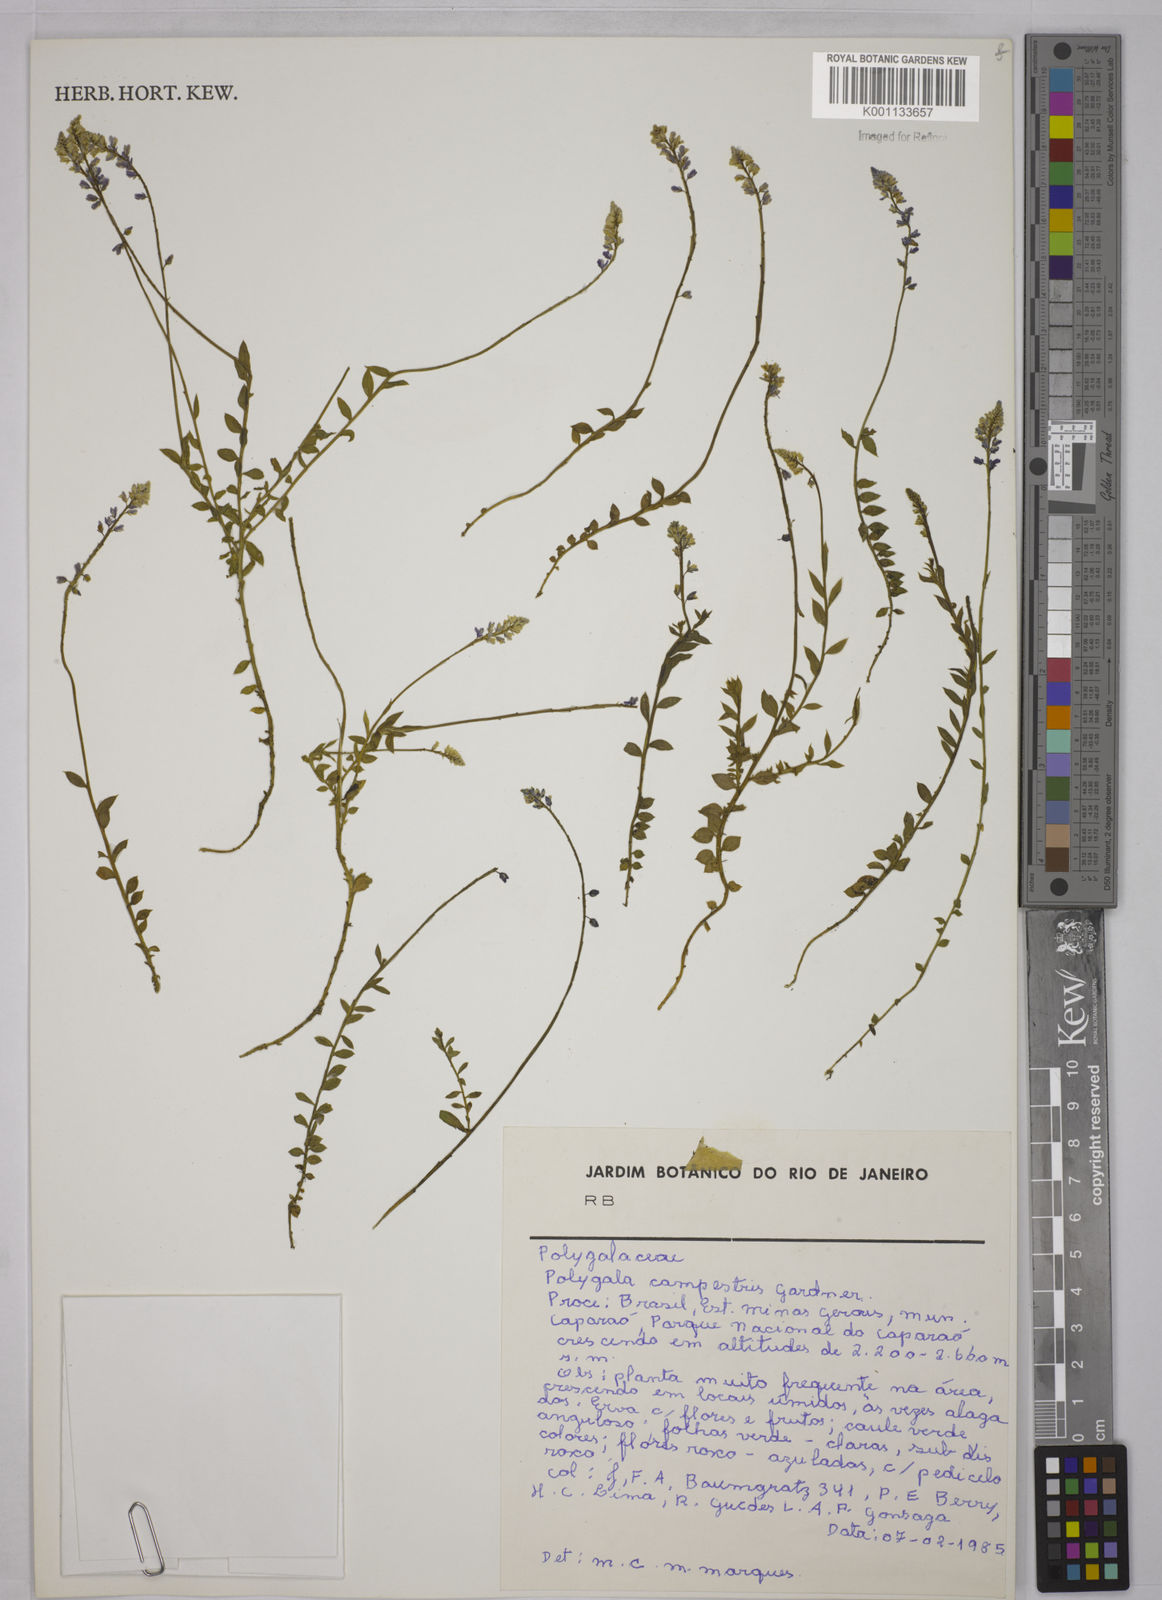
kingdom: Plantae
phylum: Tracheophyta
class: Magnoliopsida
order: Fabales
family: Polygalaceae
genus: Polygala
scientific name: Polygala campestris
